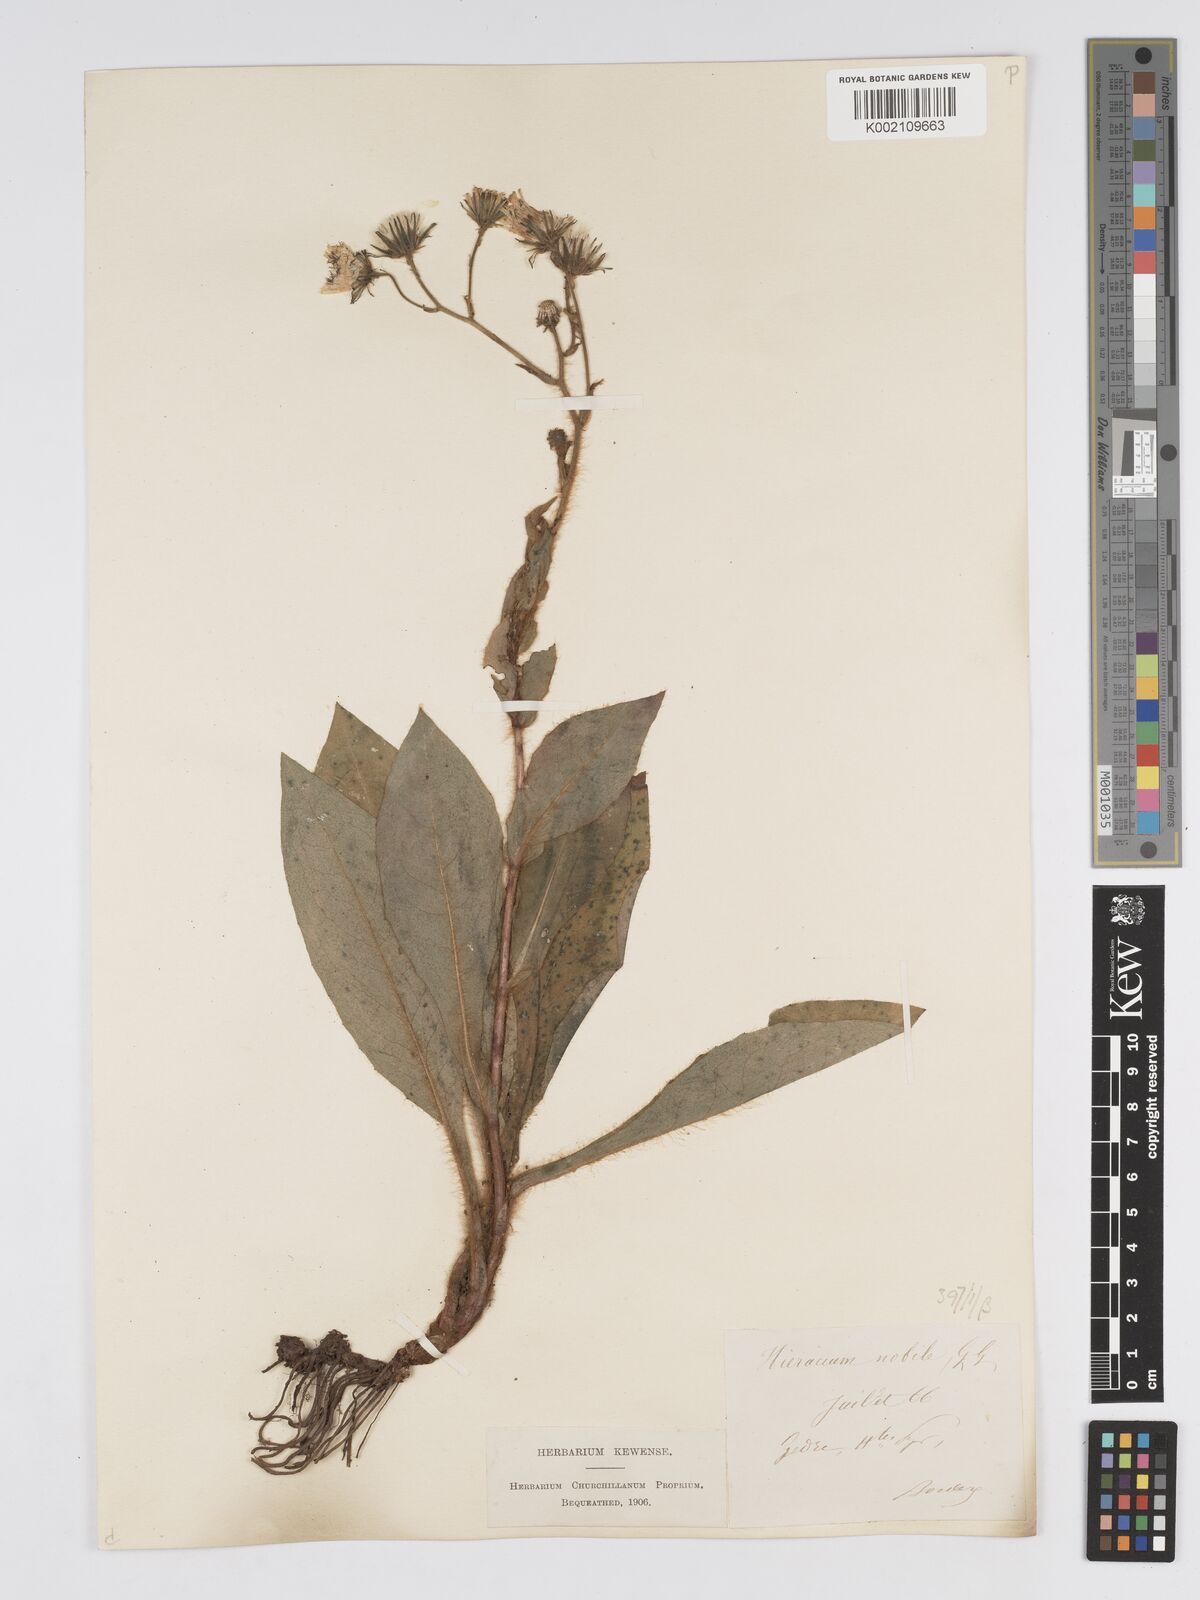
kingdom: Plantae
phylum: Tracheophyta
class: Magnoliopsida
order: Asterales
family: Asteraceae
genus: Hieracium
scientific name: Hieracium nobile
